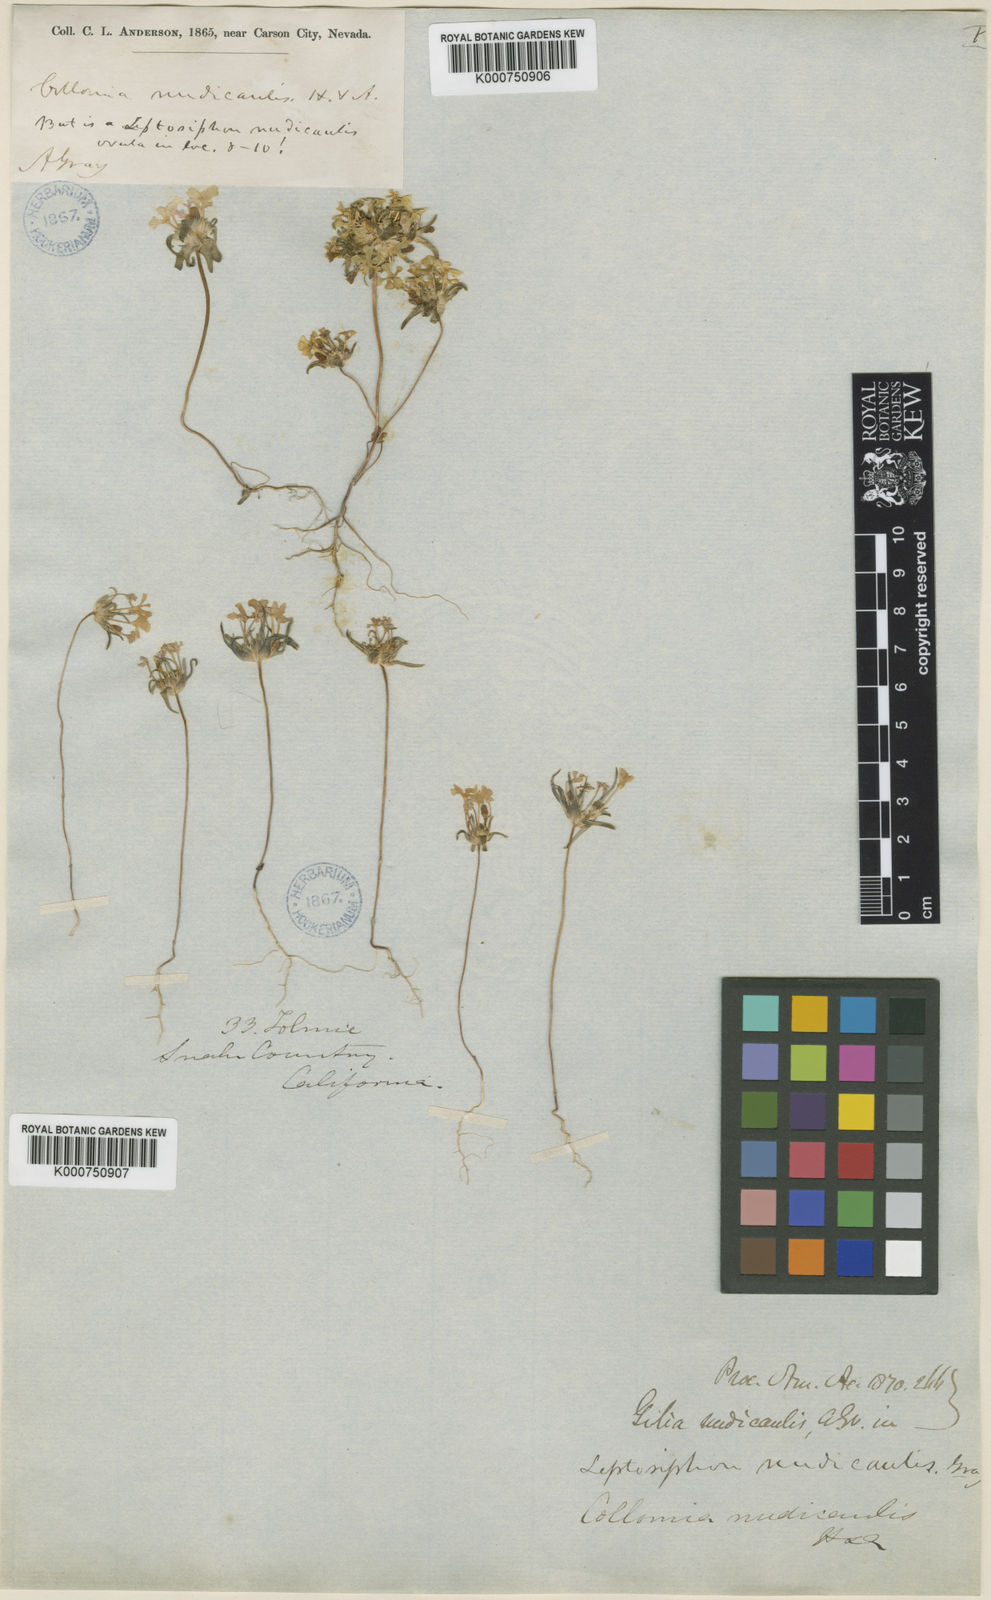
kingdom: Plantae
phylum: Tracheophyta
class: Magnoliopsida
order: Ericales
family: Polemoniaceae
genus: Gymnosteris
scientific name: Gymnosteris nudicaulis
